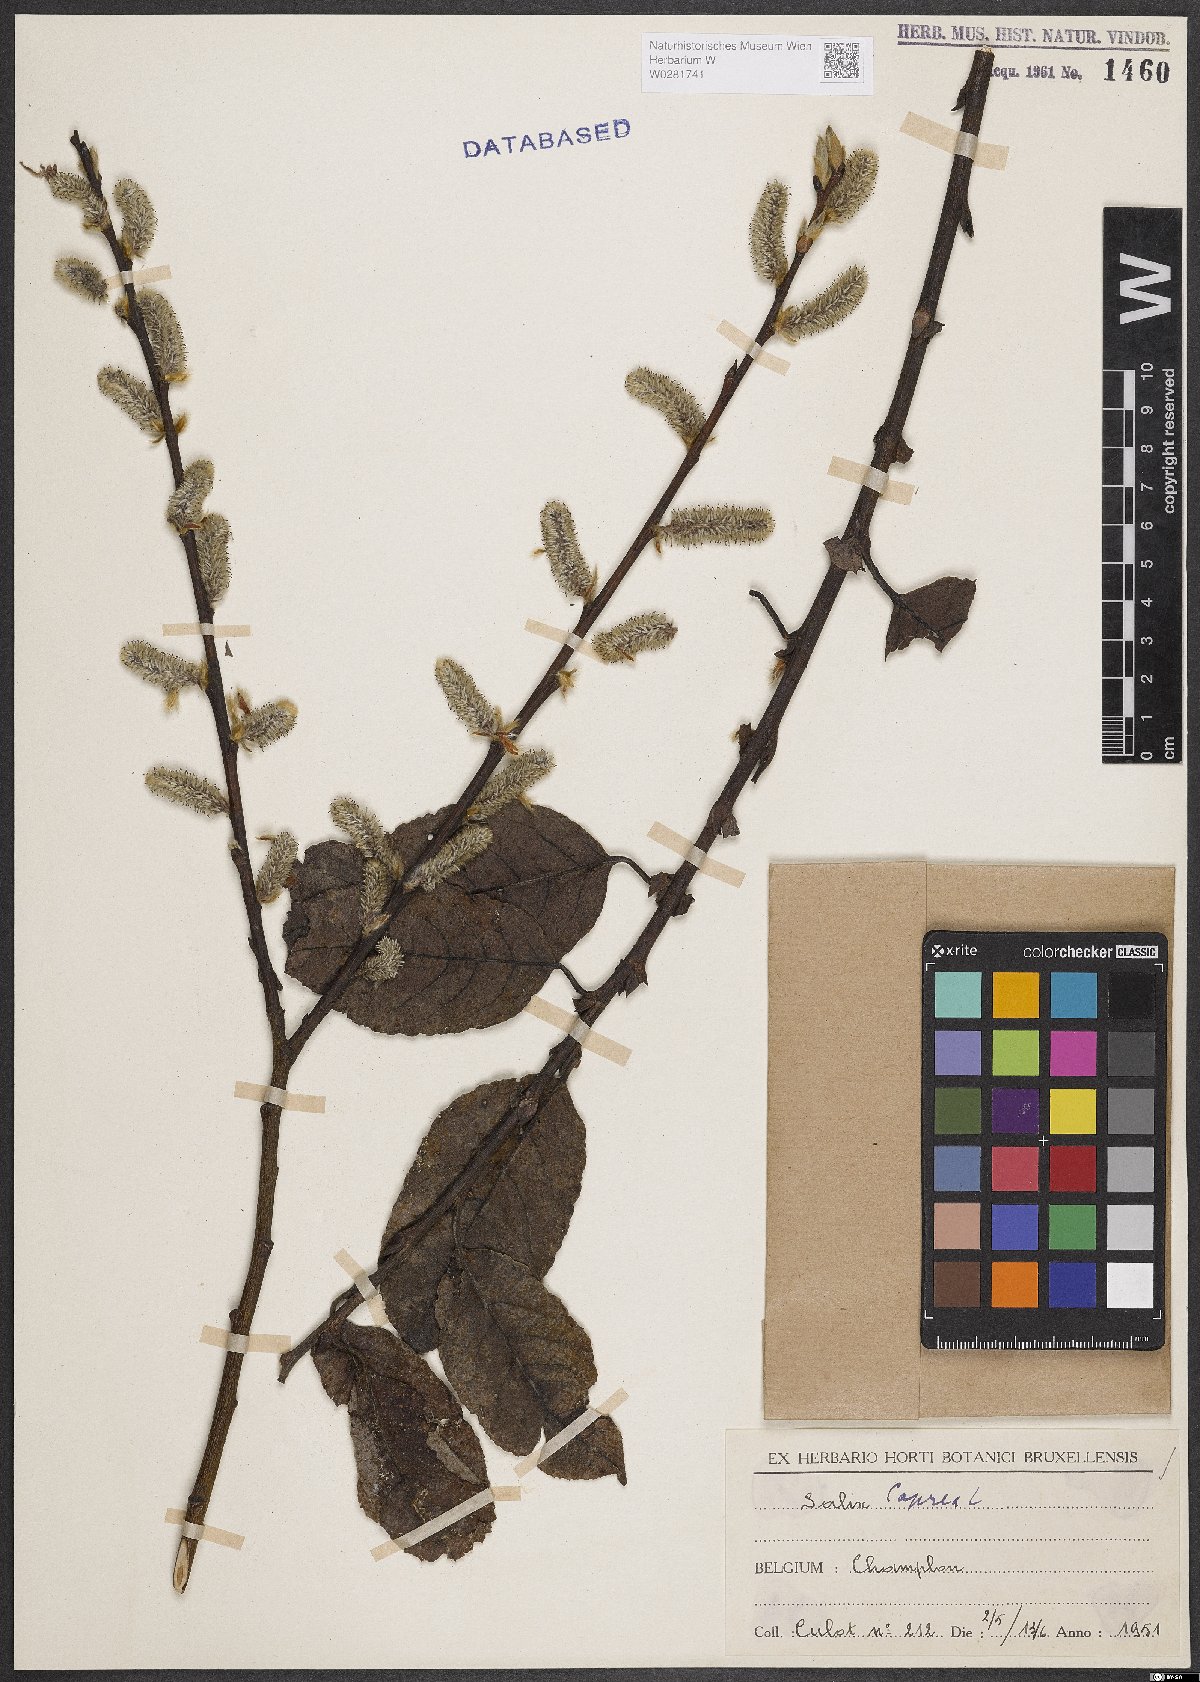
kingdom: Plantae
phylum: Tracheophyta
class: Magnoliopsida
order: Malpighiales
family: Salicaceae
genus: Salix
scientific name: Salix caprea
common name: Goat willow
